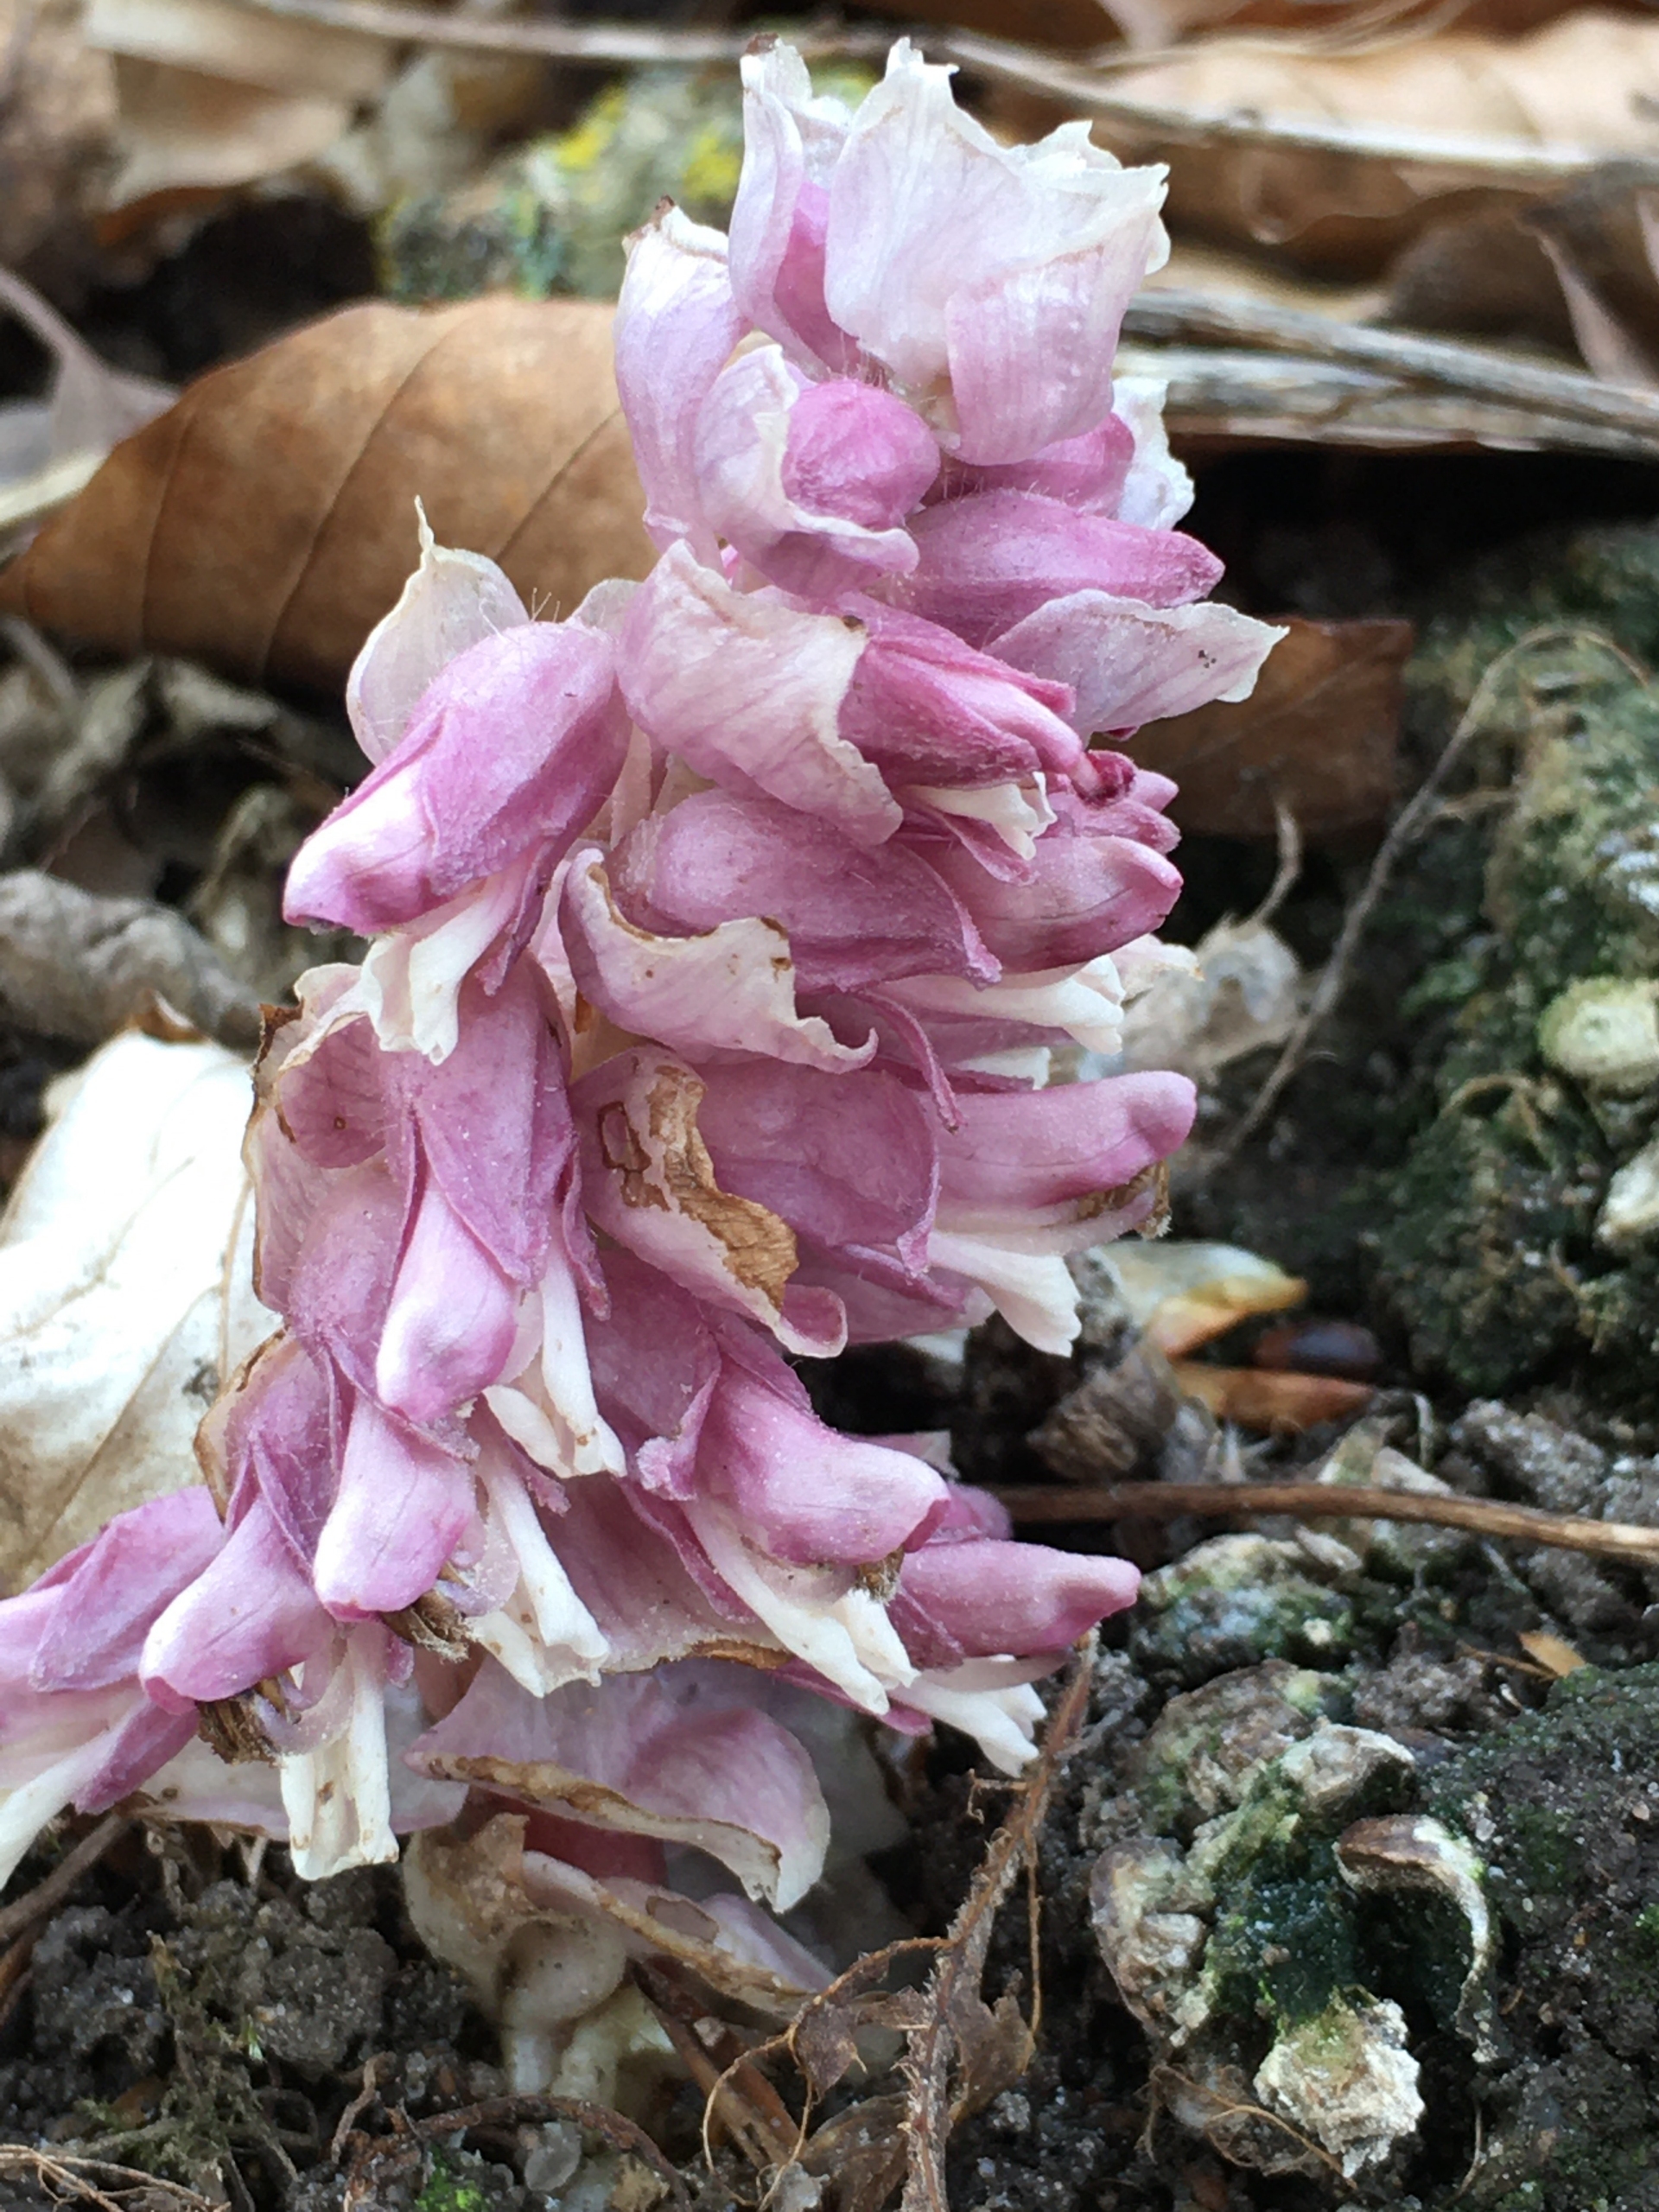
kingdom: Plantae
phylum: Tracheophyta
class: Magnoliopsida
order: Lamiales
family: Orobanchaceae
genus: Lathraea
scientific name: Lathraea squamaria
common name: Skælrod
